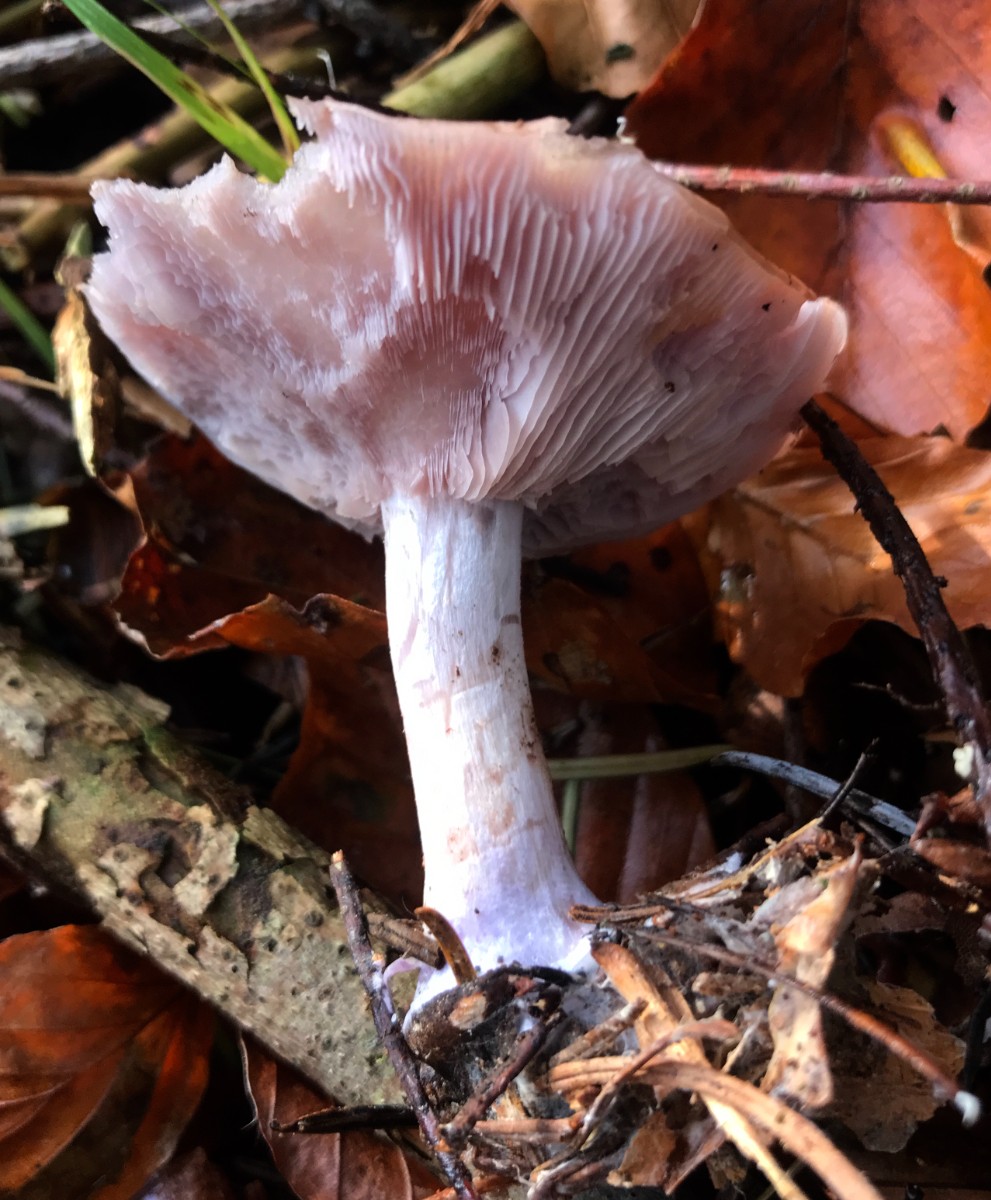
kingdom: Fungi
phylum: Basidiomycota
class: Agaricomycetes
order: Agaricales
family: Tricholomataceae
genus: Lepista
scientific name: Lepista nuda
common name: violet hekseringshat
